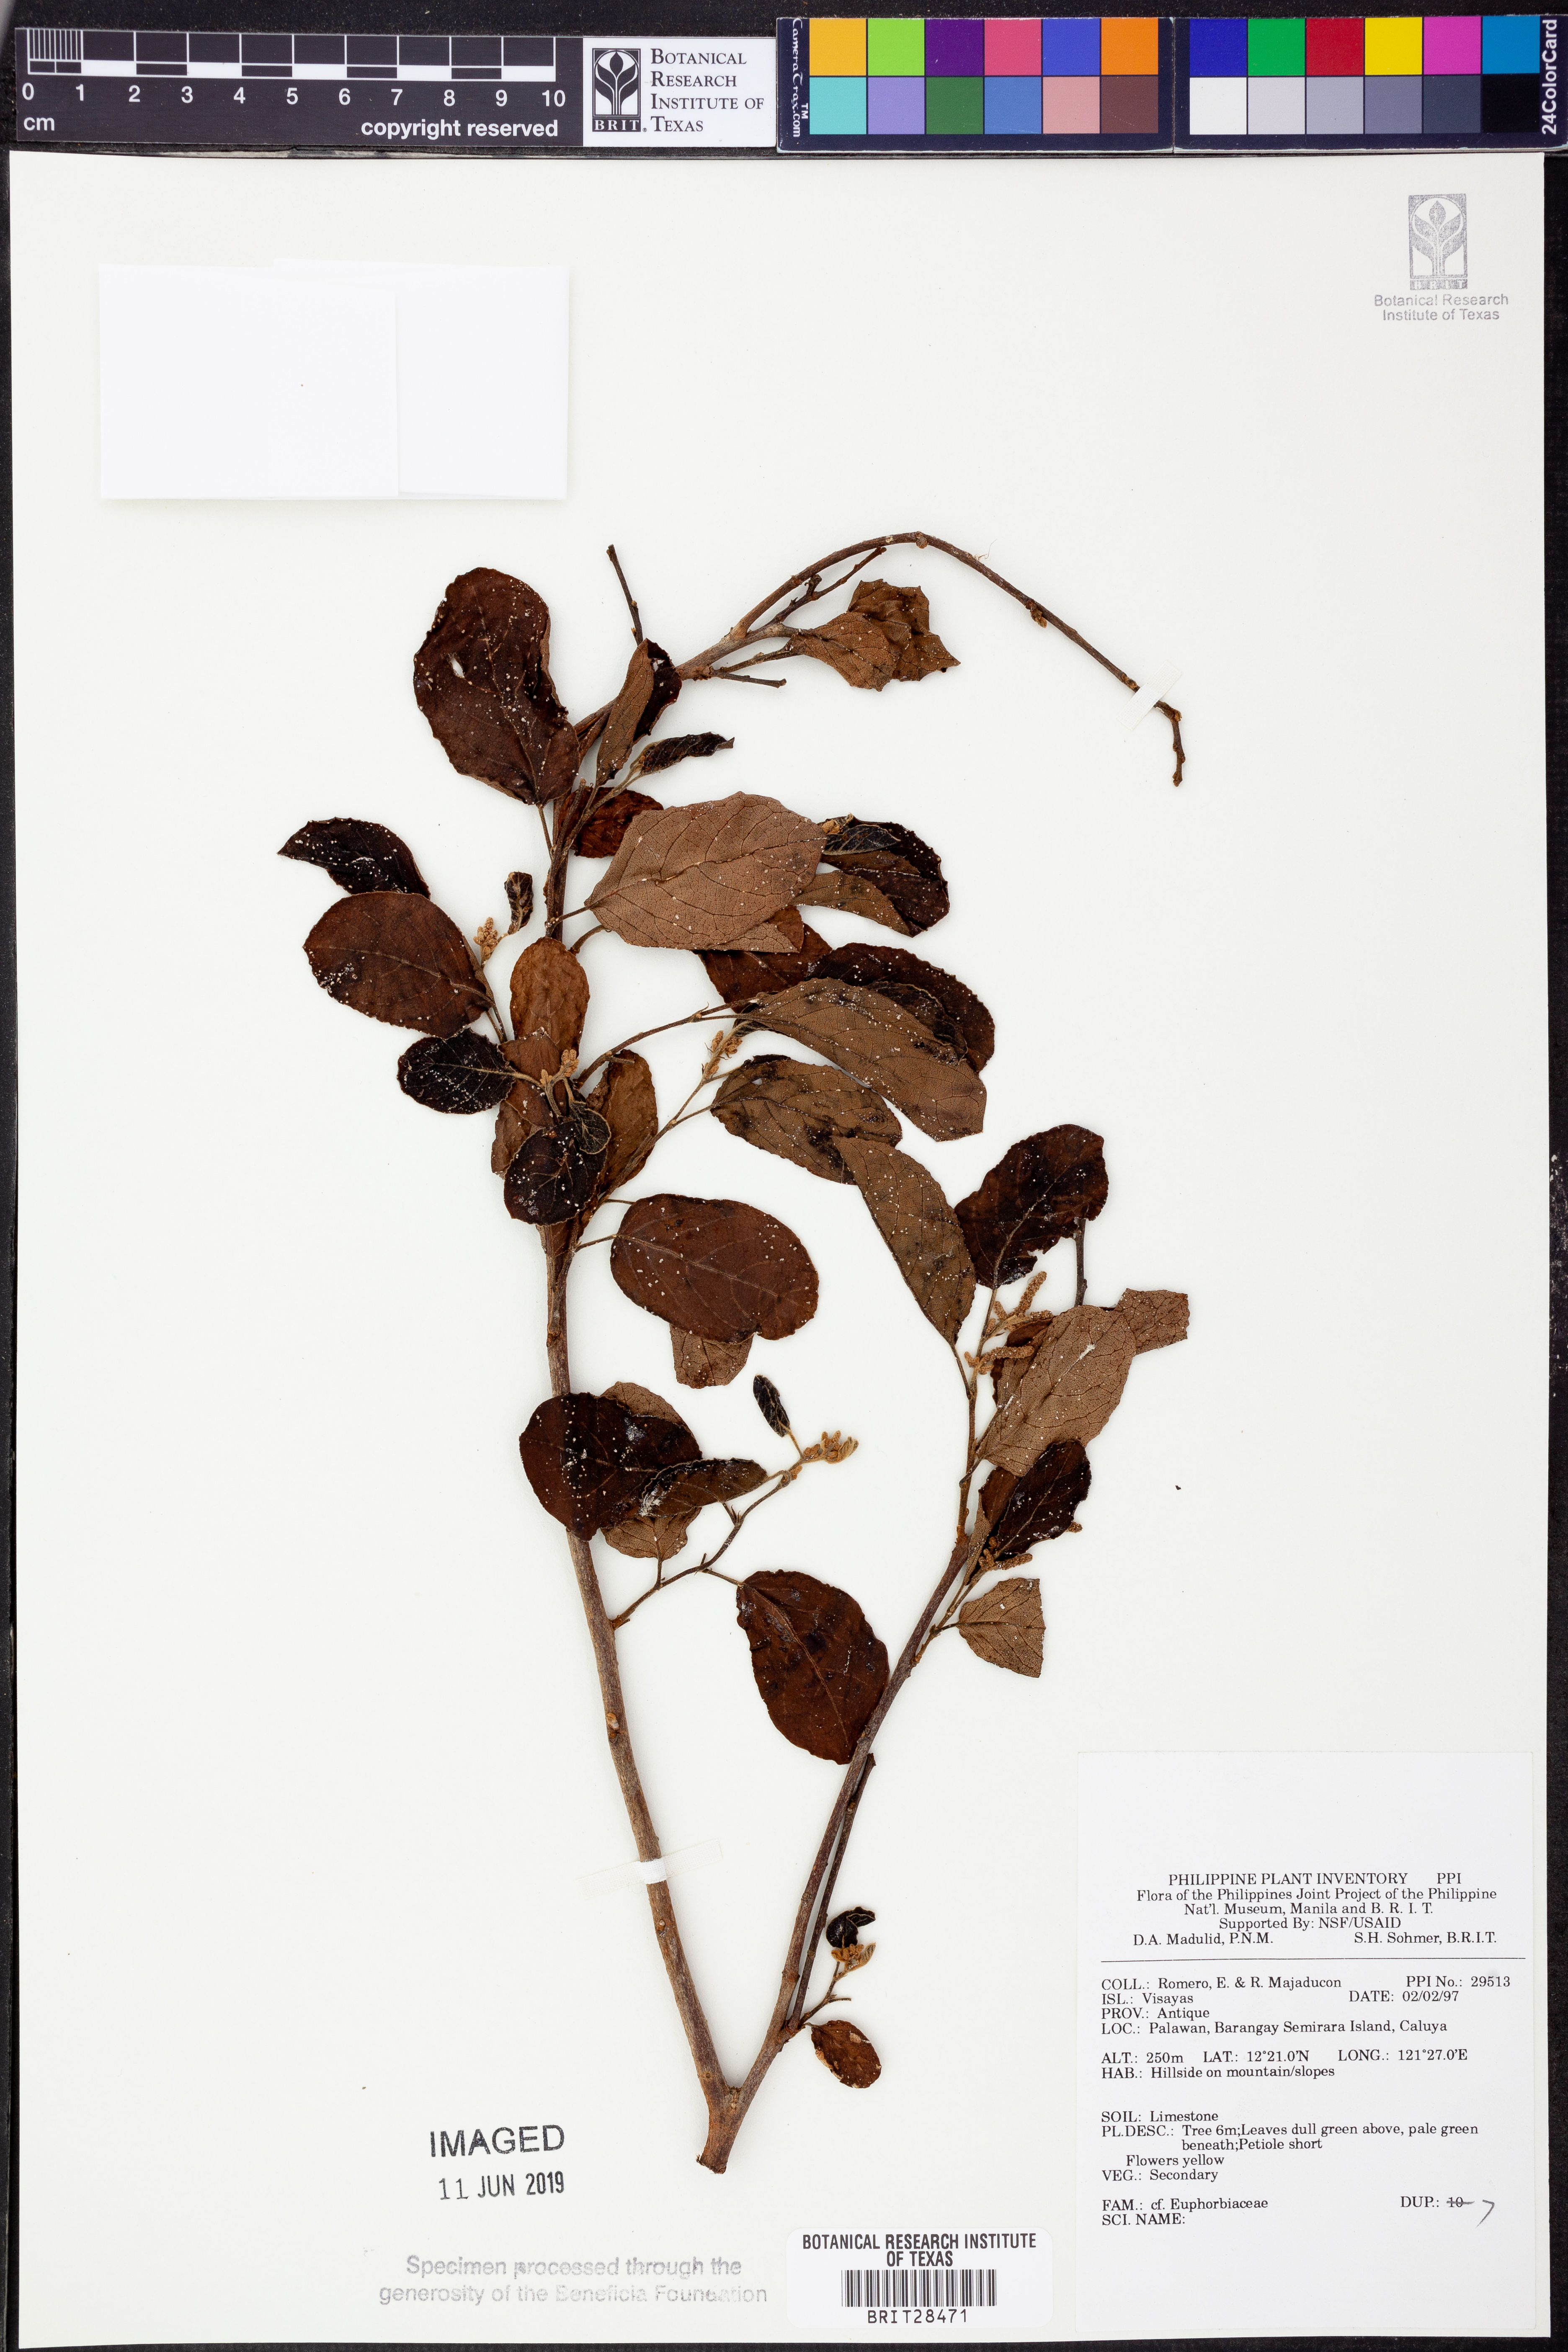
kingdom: Plantae
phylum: Tracheophyta
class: Magnoliopsida
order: Malpighiales
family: Euphorbiaceae
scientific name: Euphorbiaceae
